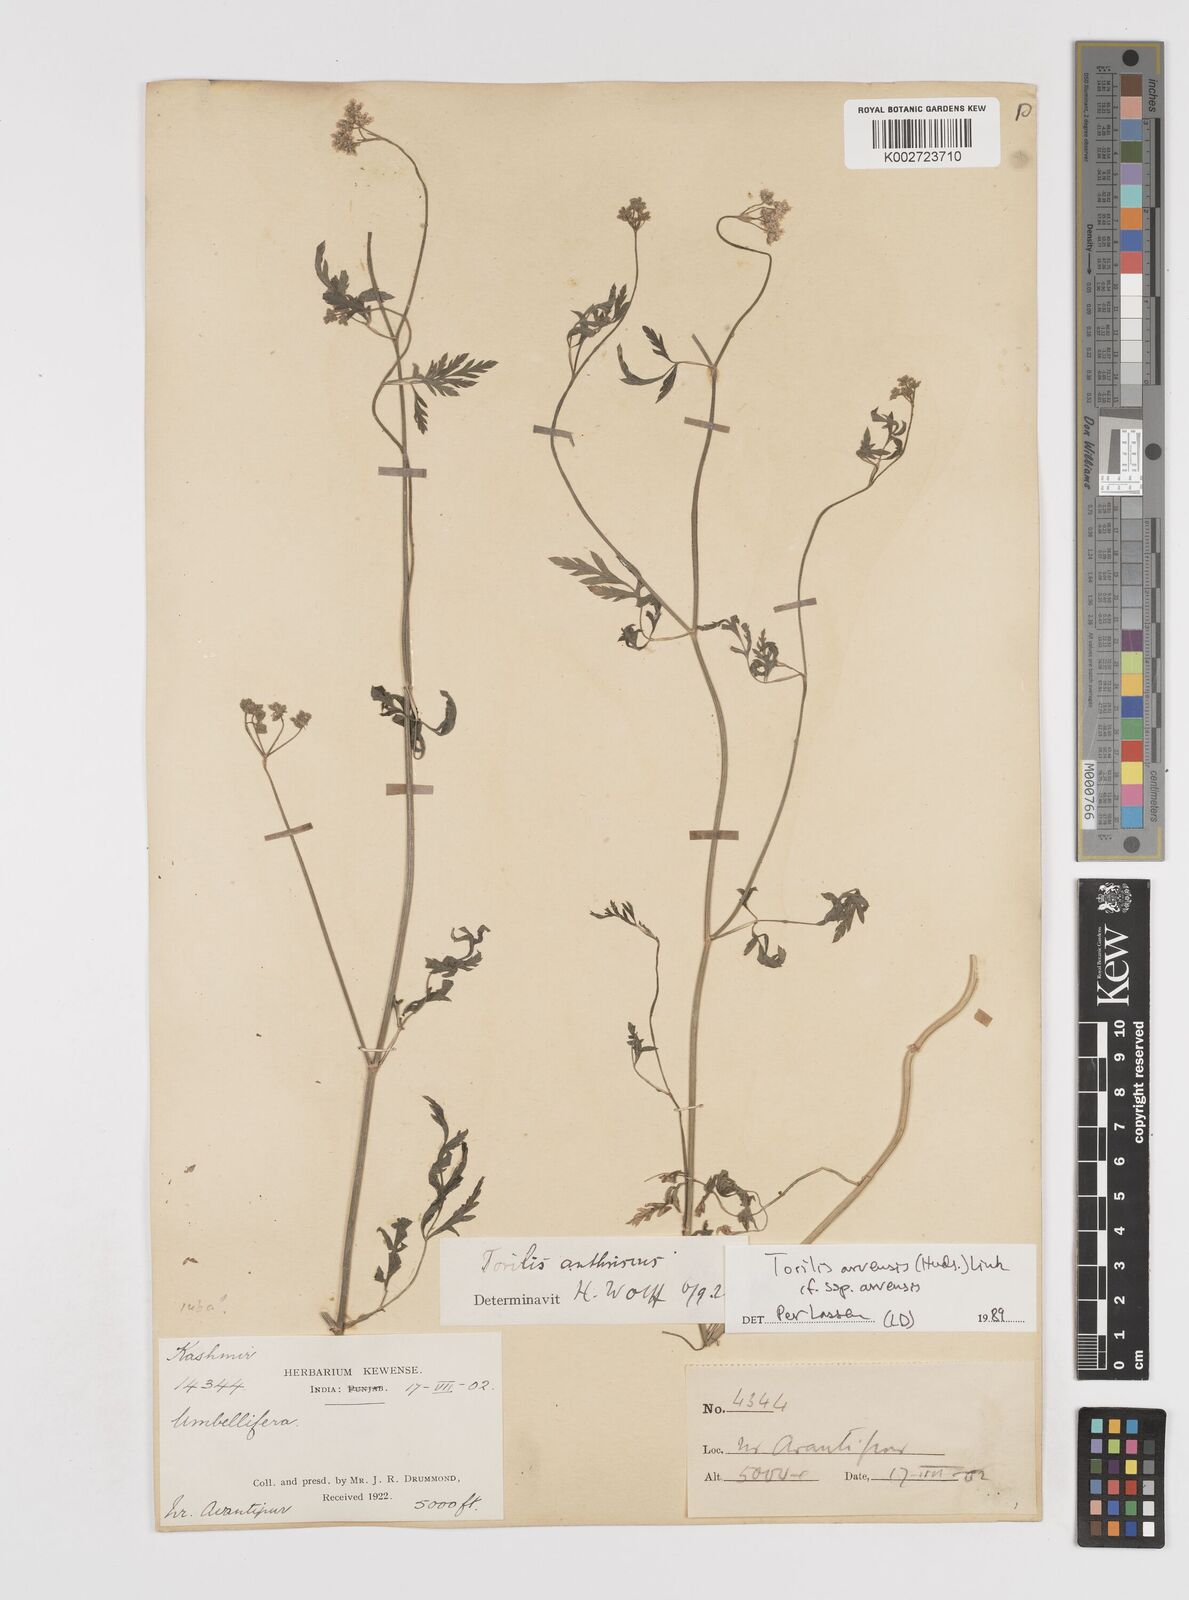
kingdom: Plantae
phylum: Tracheophyta
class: Magnoliopsida
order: Apiales
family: Apiaceae
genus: Torilis
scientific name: Torilis arvensis
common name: Spreading hedge-parsley
